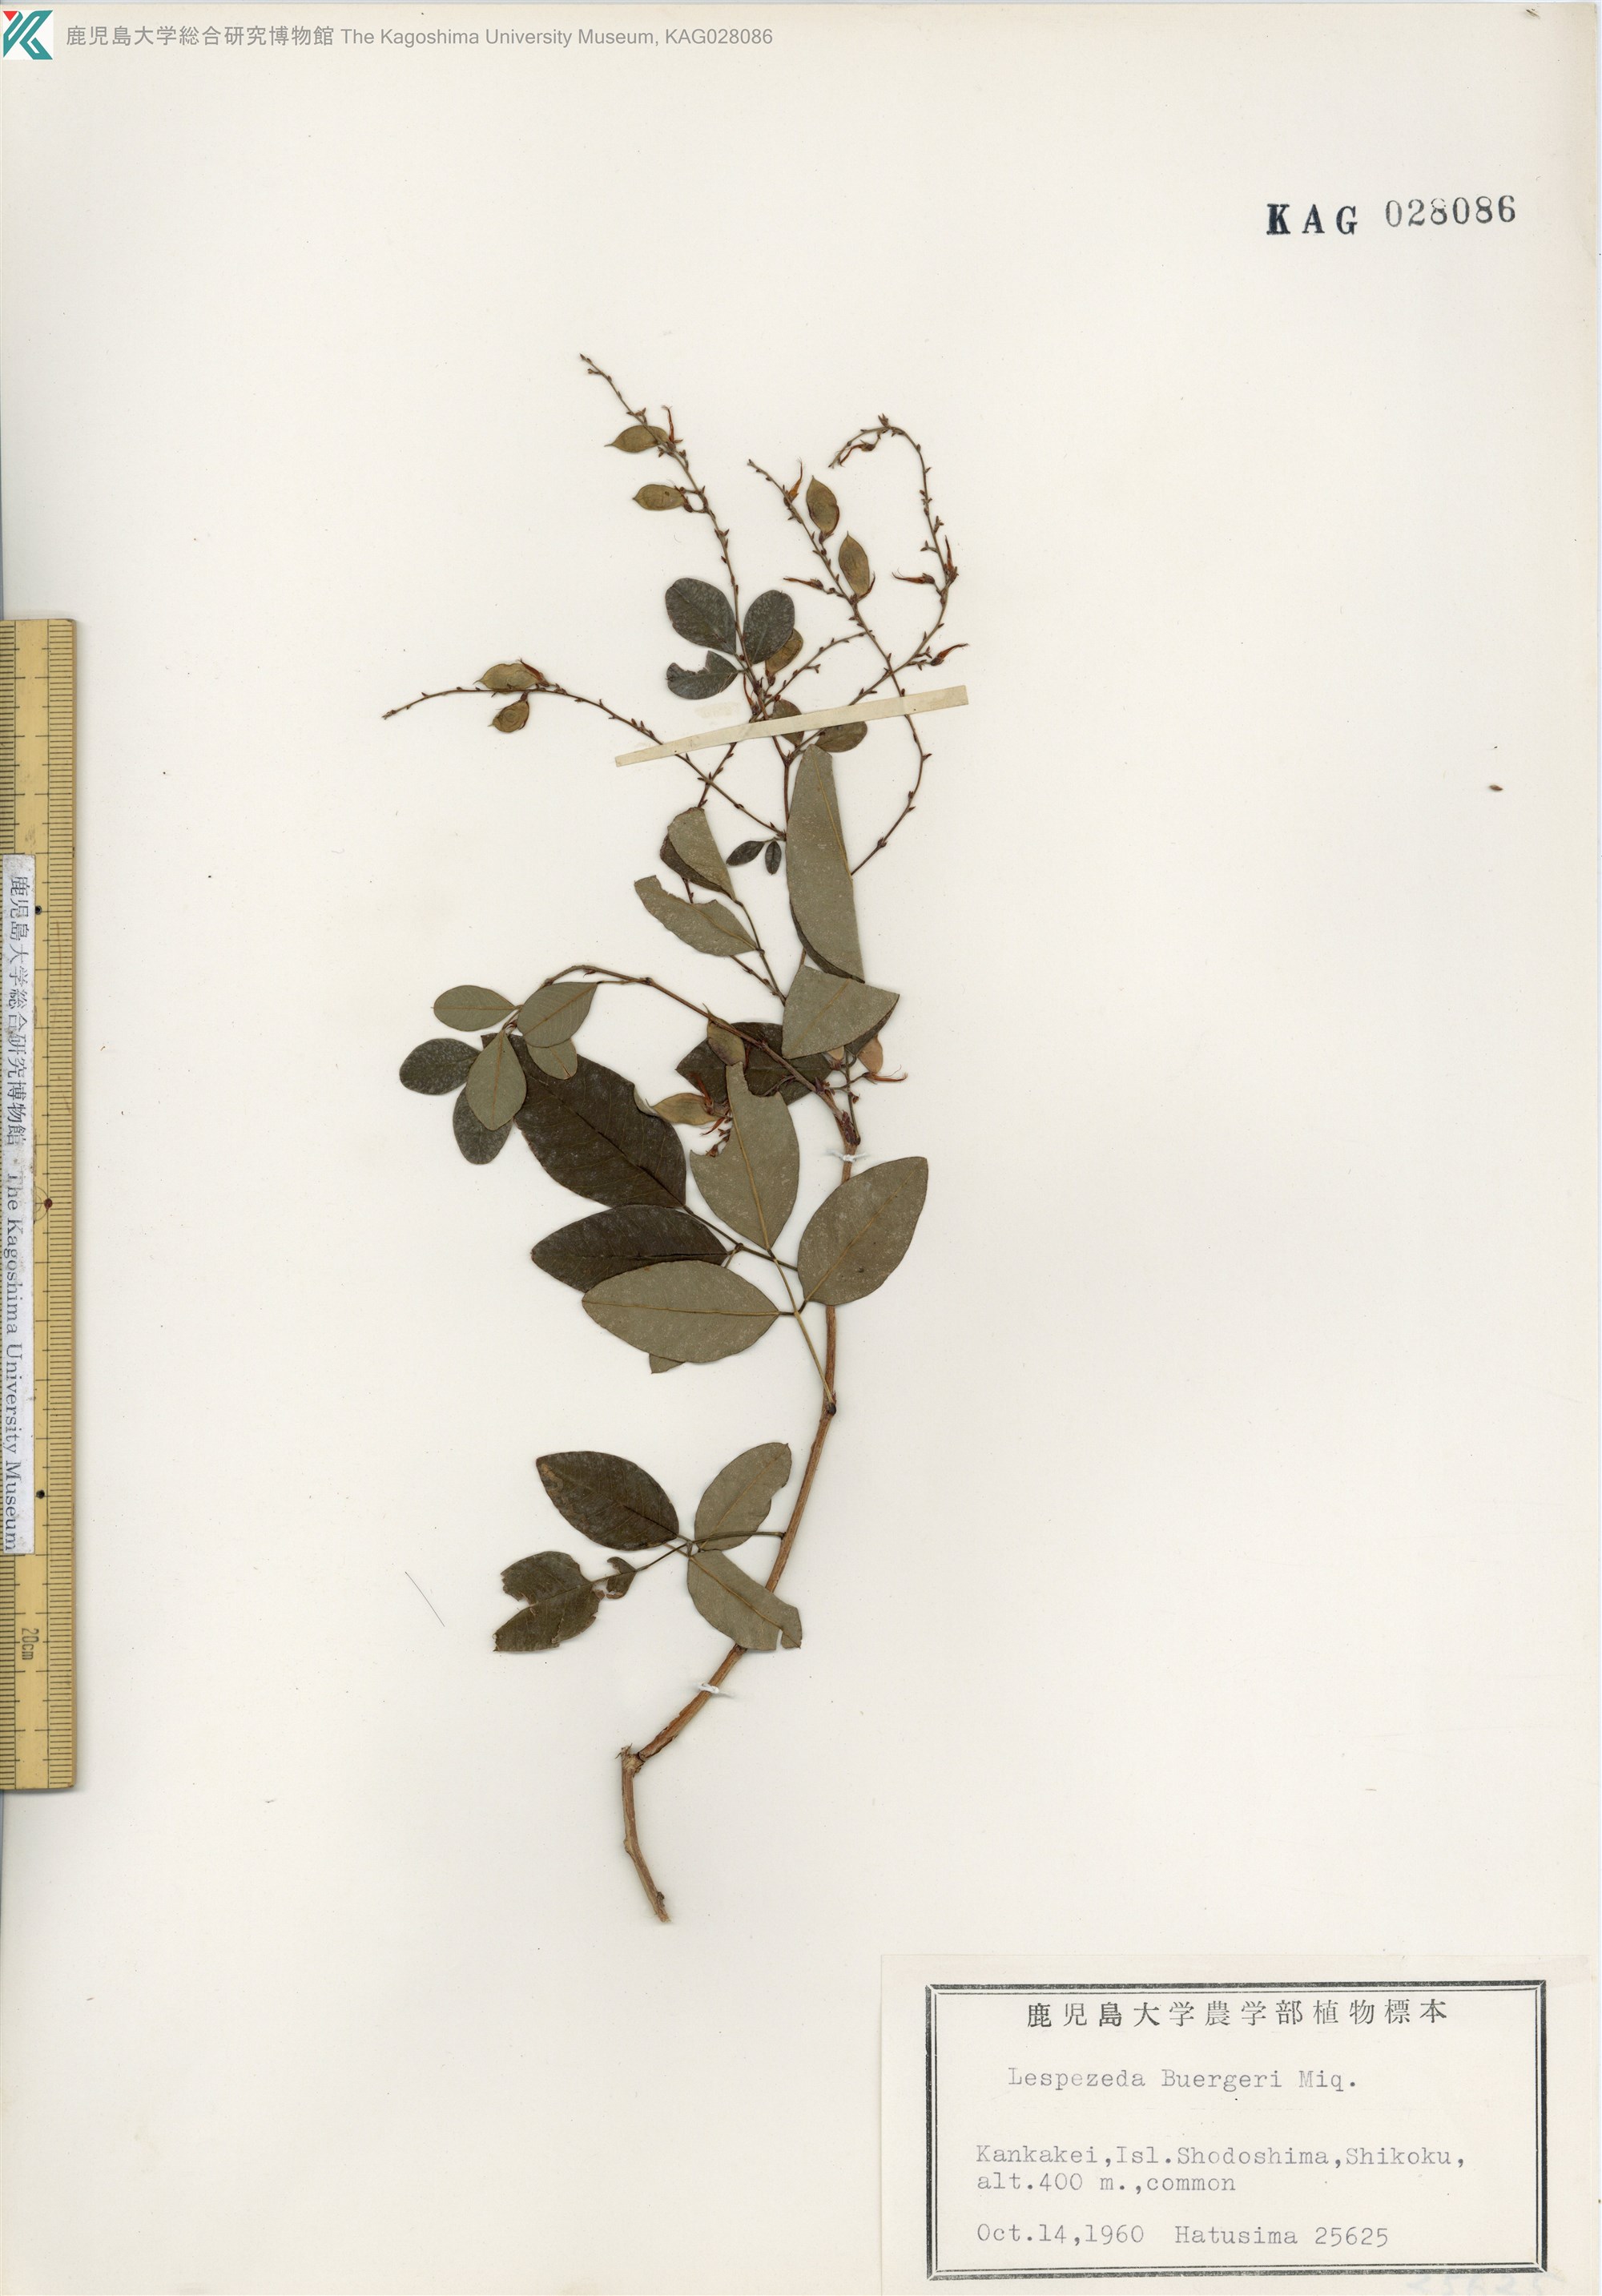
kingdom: Plantae
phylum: Tracheophyta
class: Magnoliopsida
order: Fabales
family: Fabaceae
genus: Lespedeza
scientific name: Lespedeza buergeri
